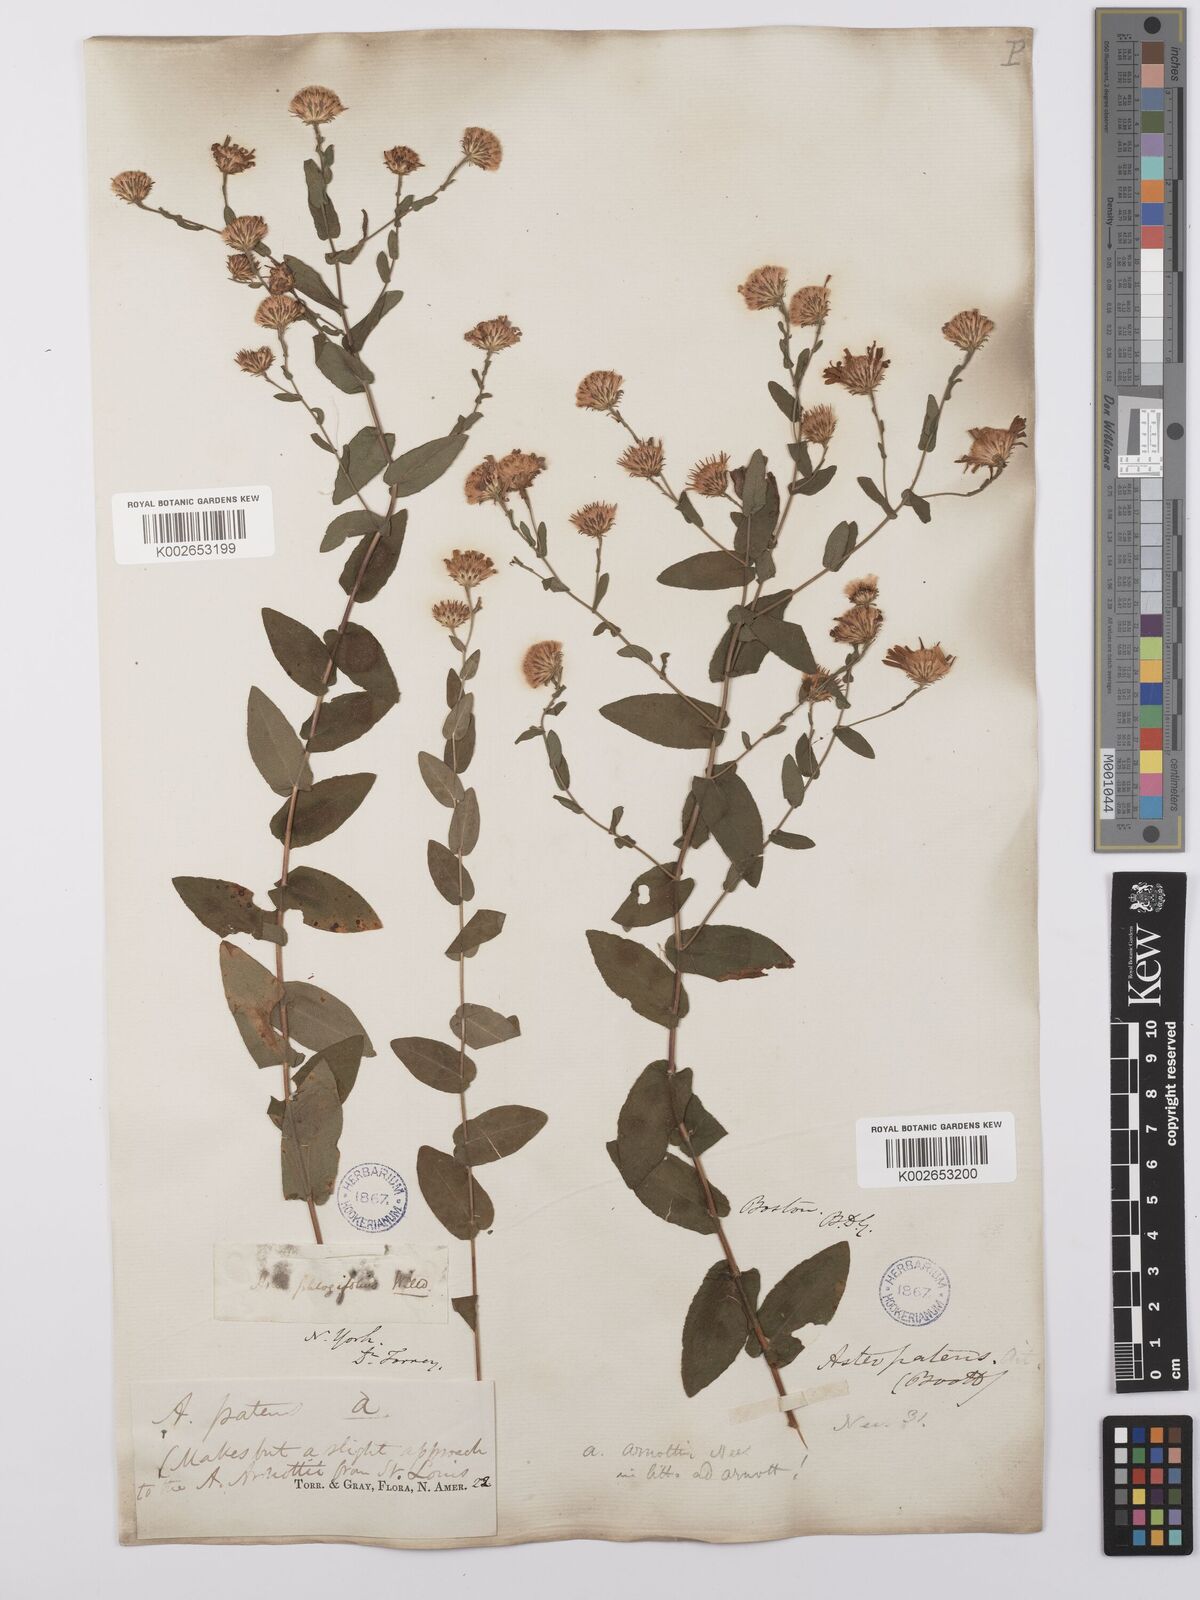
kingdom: Plantae
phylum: Tracheophyta
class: Magnoliopsida
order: Asterales
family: Asteraceae
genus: Symphyotrichum
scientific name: Symphyotrichum patens
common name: Late purple aster
